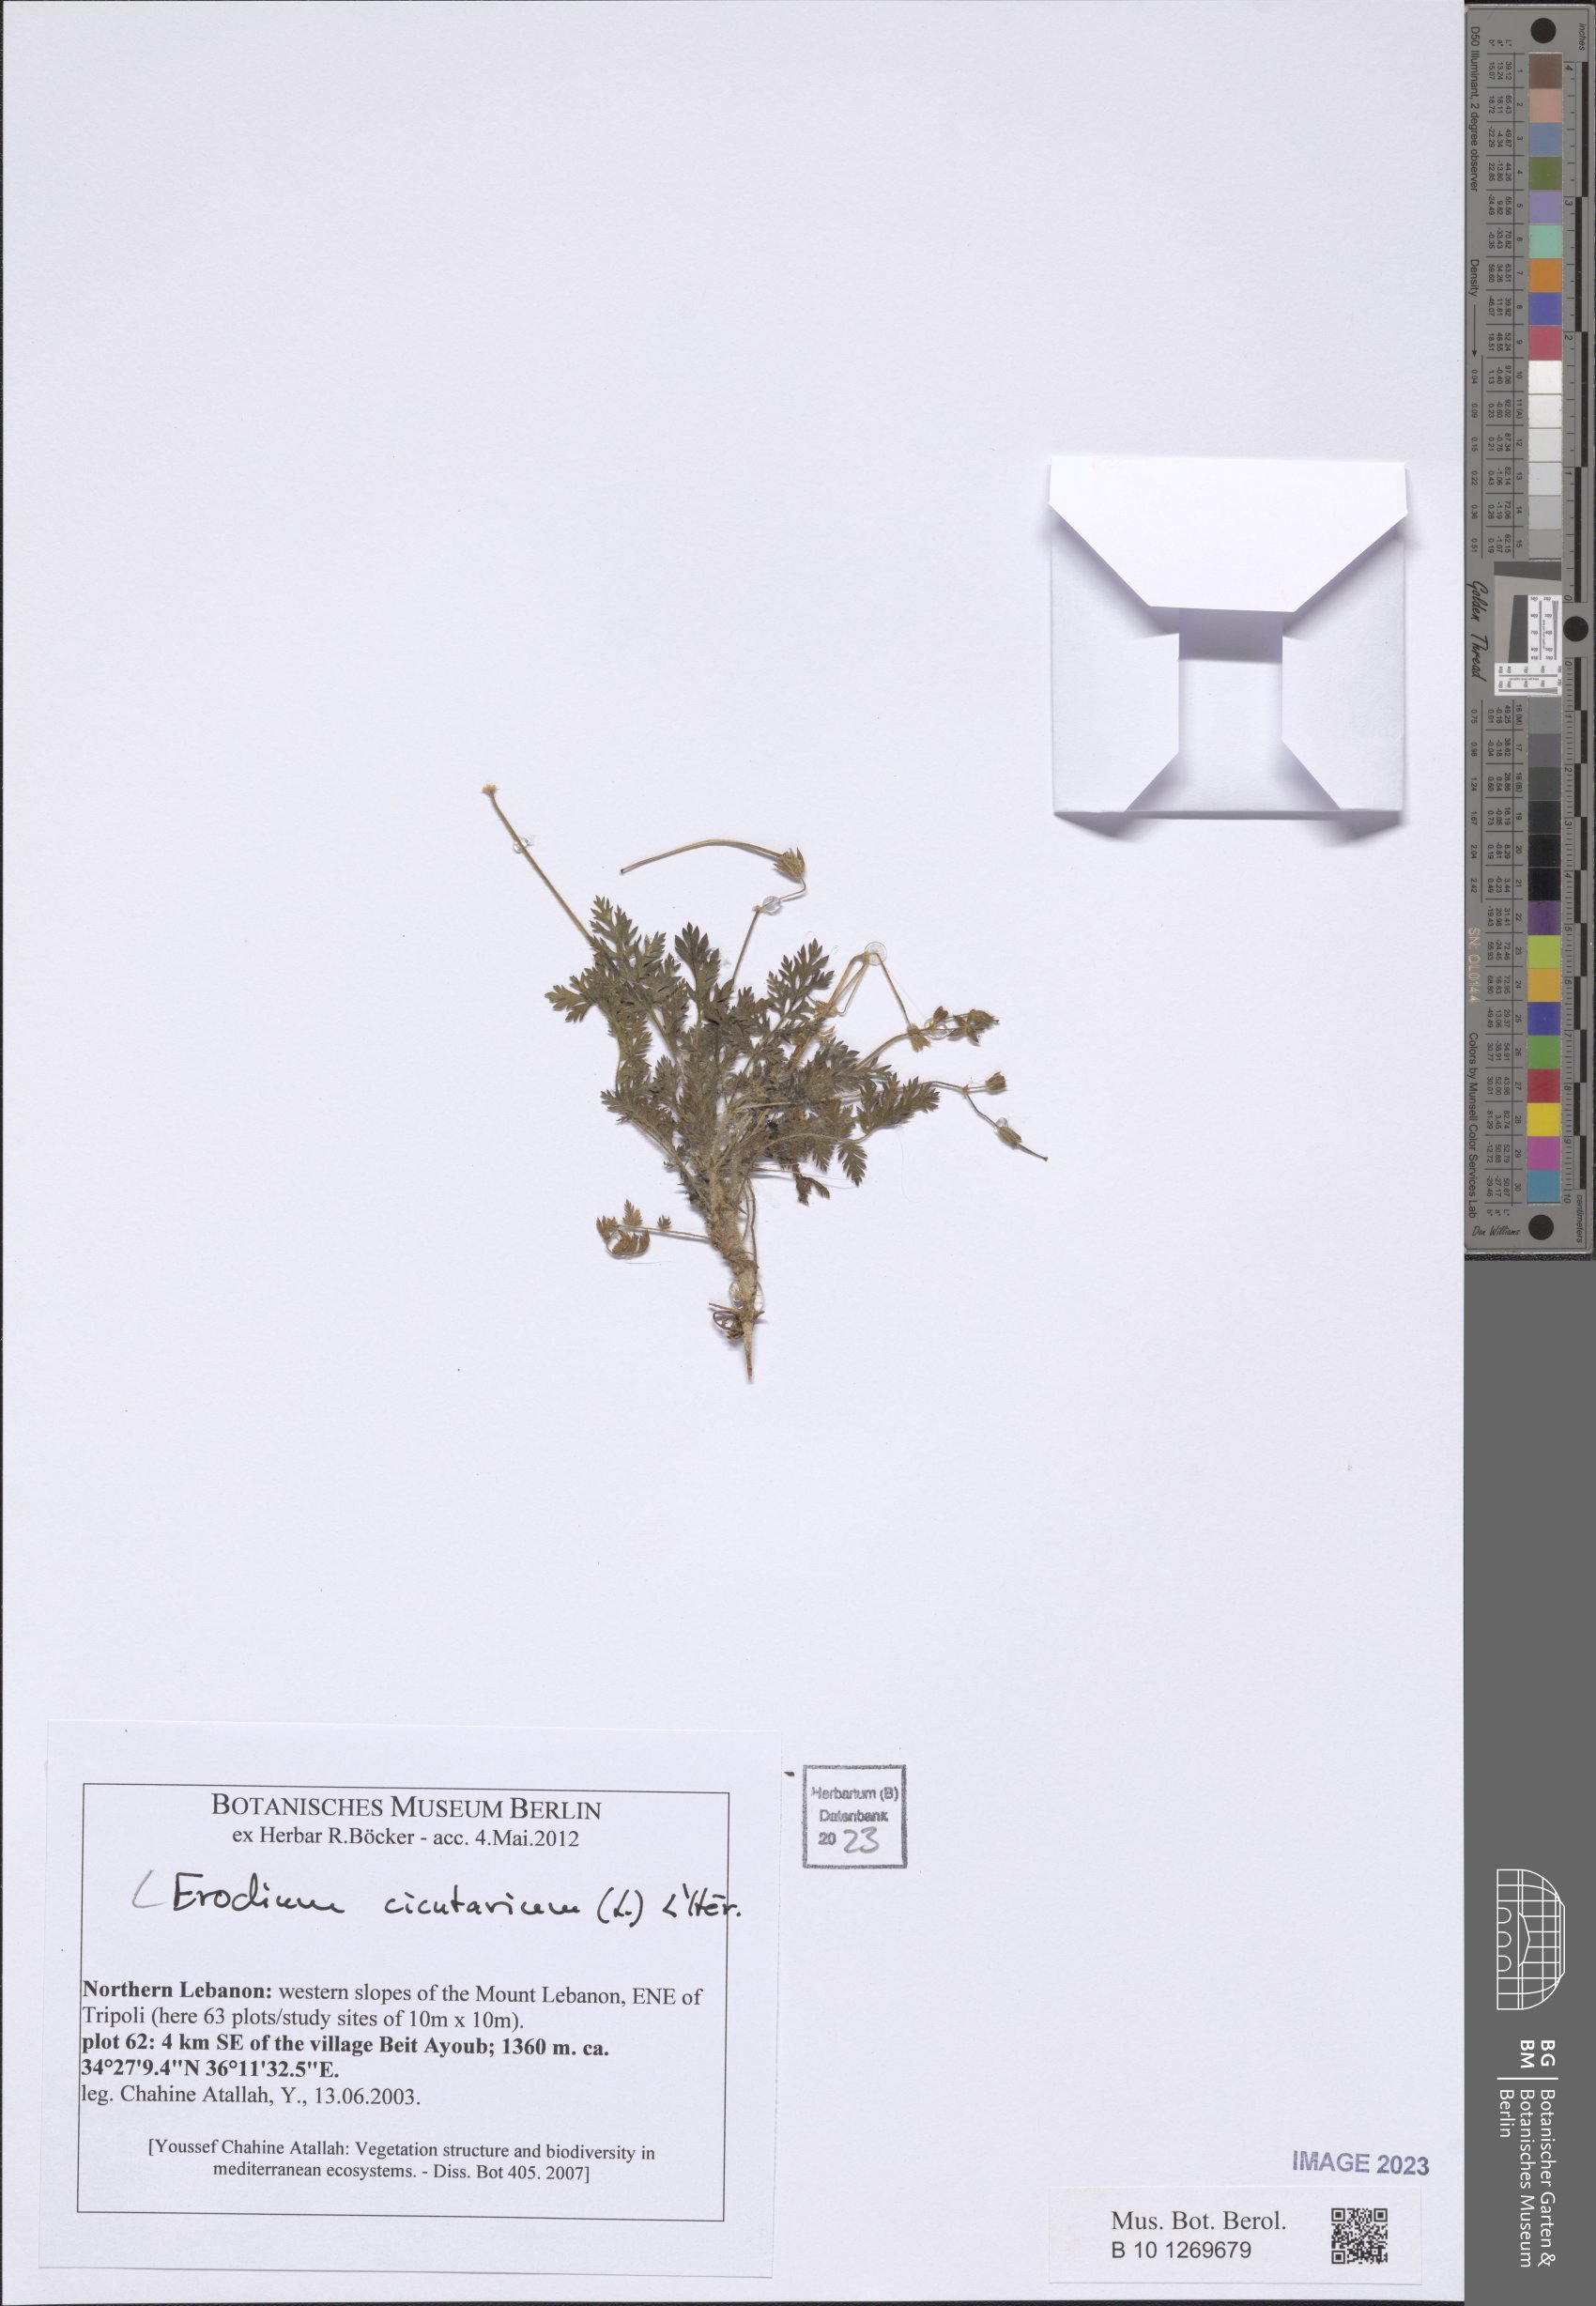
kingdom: Plantae
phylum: Tracheophyta
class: Magnoliopsida
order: Geraniales
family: Geraniaceae
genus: Erodium
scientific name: Erodium cicutarium
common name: Common stork's-bill
